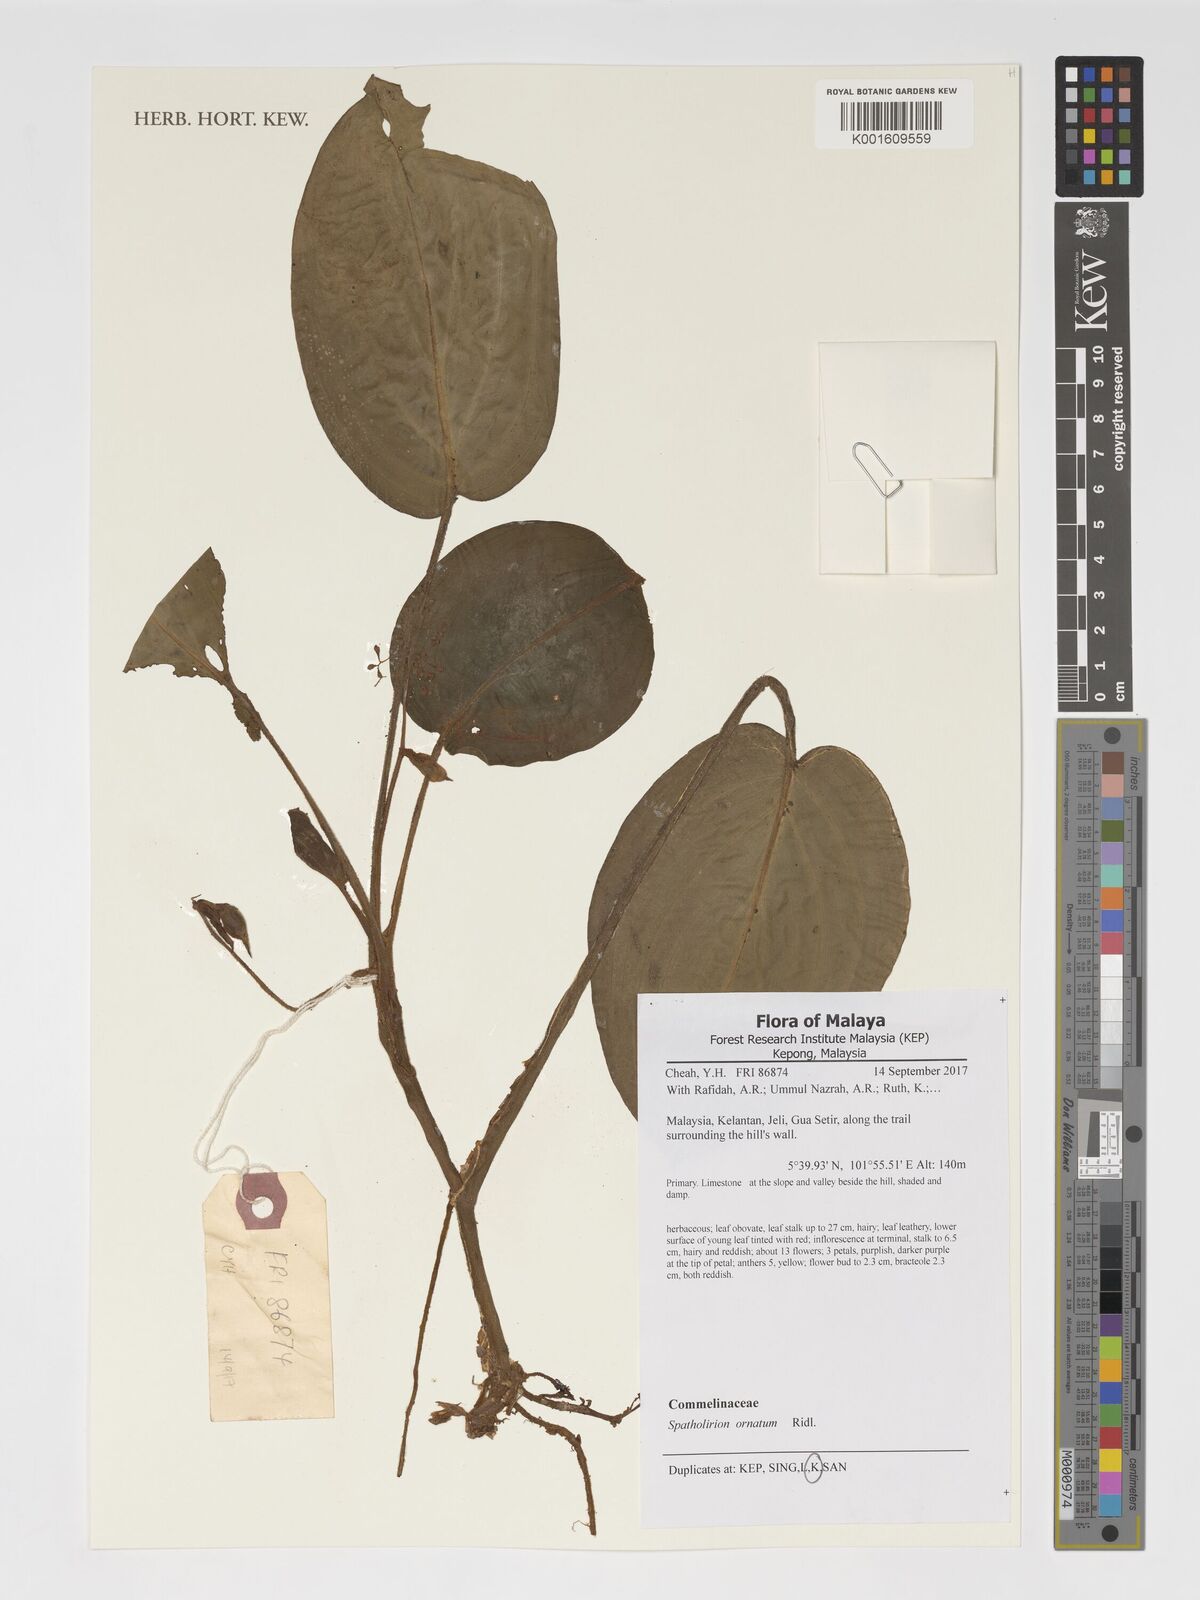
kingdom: Plantae
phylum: Tracheophyta
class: Liliopsida
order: Commelinales
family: Commelinaceae
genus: Spatholirion
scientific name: Spatholirion ornatum
